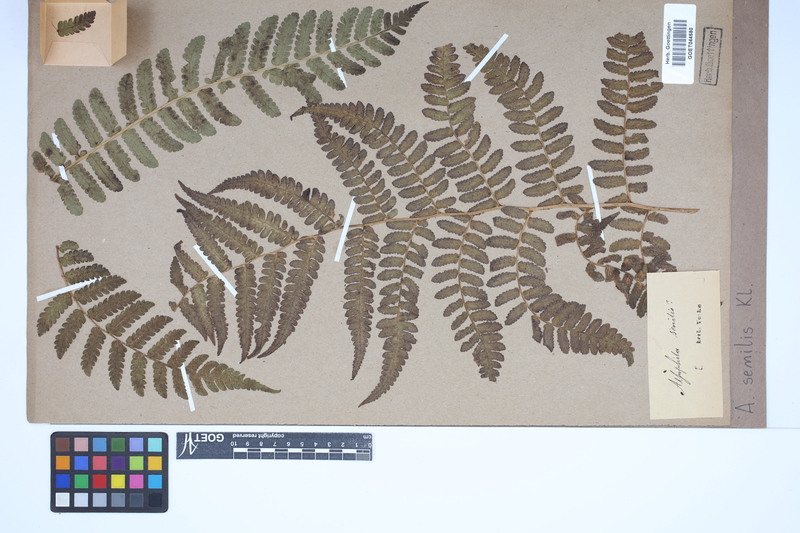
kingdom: Plantae
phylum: Tracheophyta
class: Polypodiopsida
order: Cyatheales
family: Cyatheaceae
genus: Sphaeropteris
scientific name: Sphaeropteris senilis
